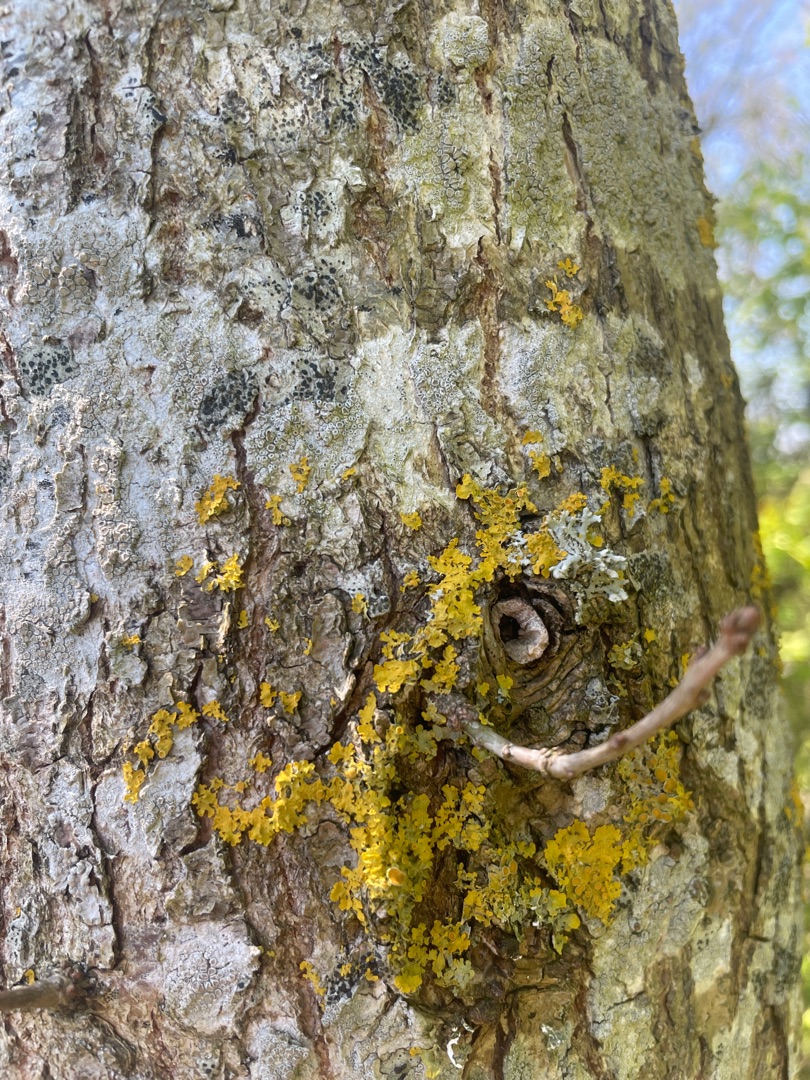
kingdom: Fungi
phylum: Ascomycota
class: Lecanoromycetes
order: Teloschistales
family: Teloschistaceae
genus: Xanthoria
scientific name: Xanthoria parietina
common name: Almindelig væggelav
